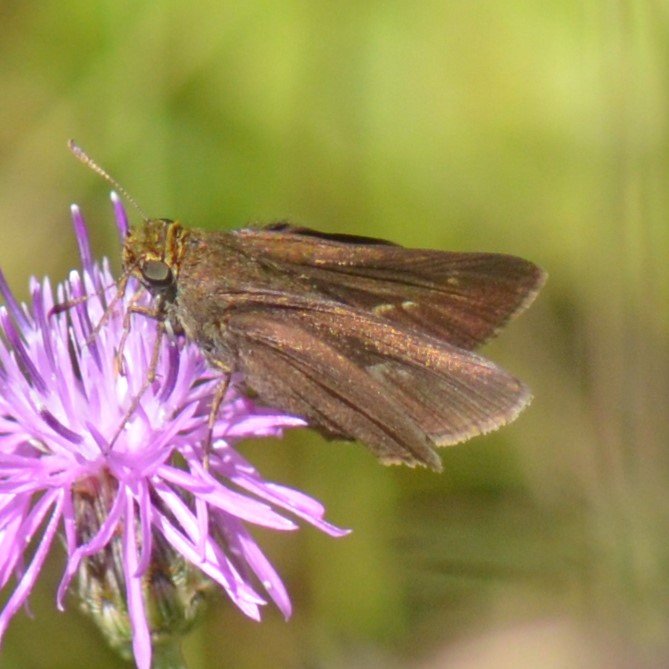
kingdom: Animalia
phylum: Arthropoda
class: Insecta
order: Lepidoptera
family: Hesperiidae
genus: Euphyes
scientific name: Euphyes vestris
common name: Dun Skipper
